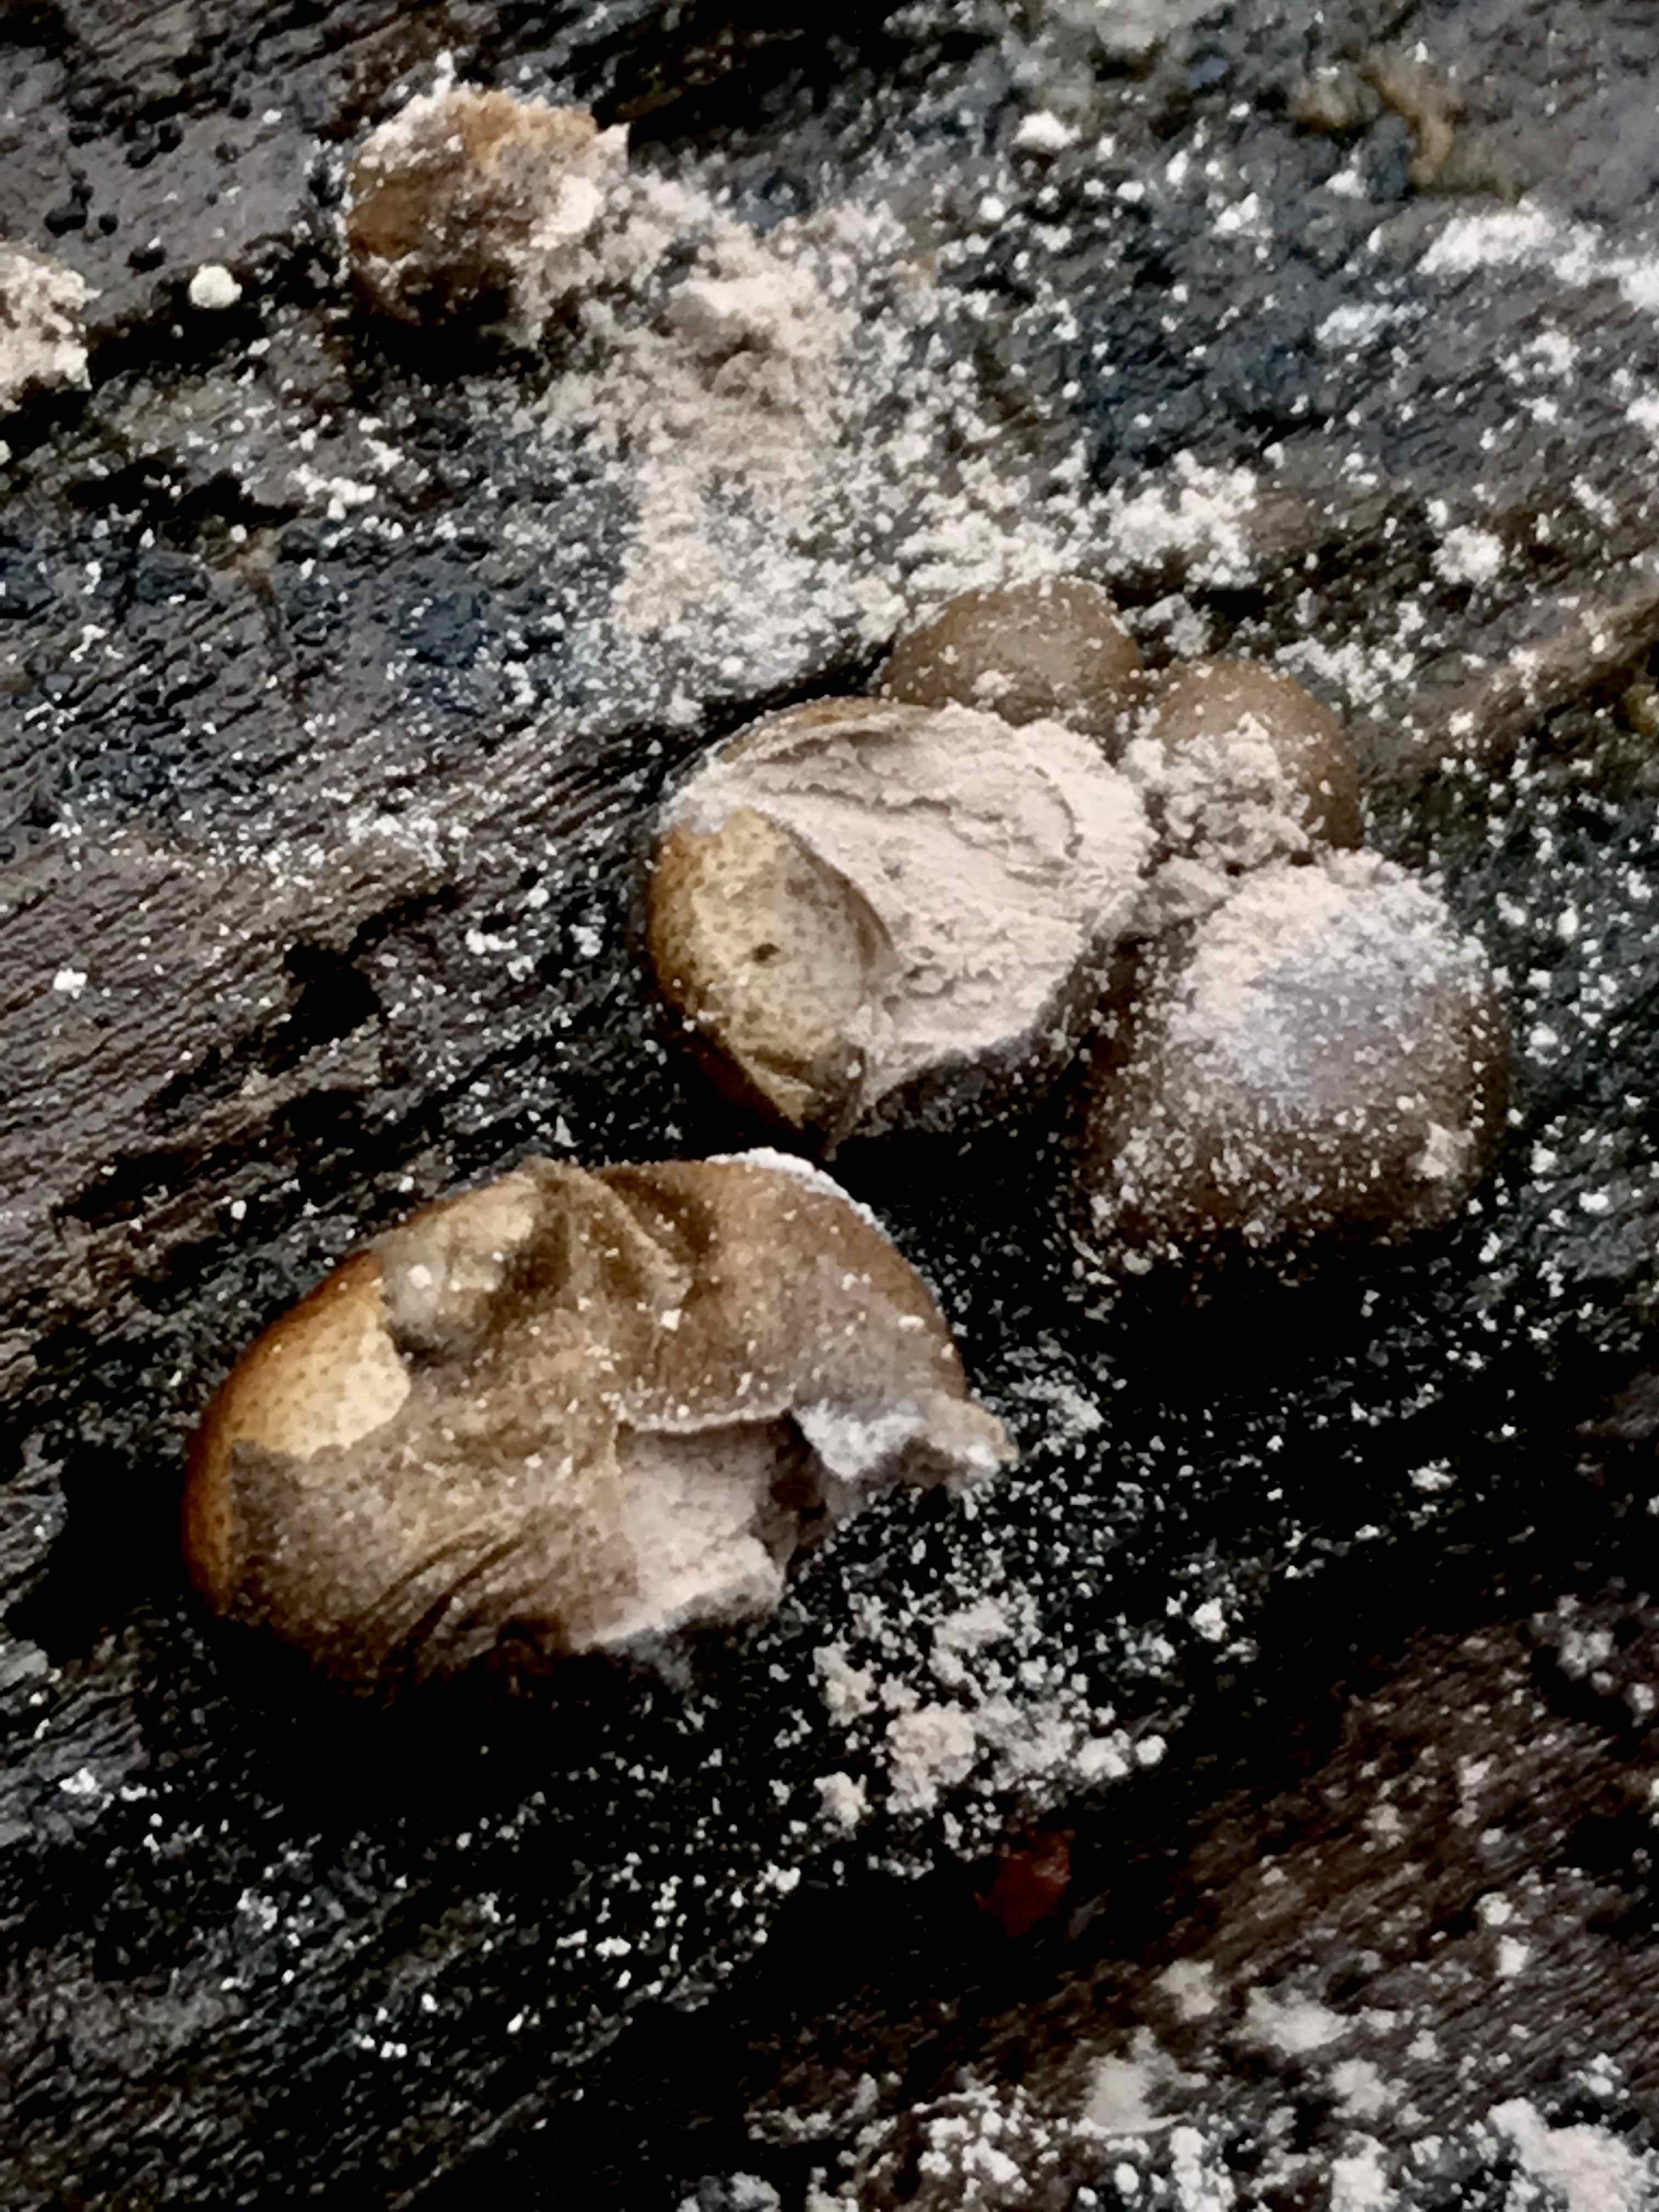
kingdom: Protozoa
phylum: Mycetozoa
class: Myxomycetes
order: Cribrariales
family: Tubiferaceae
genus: Lycogala
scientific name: Lycogala epidendrum
